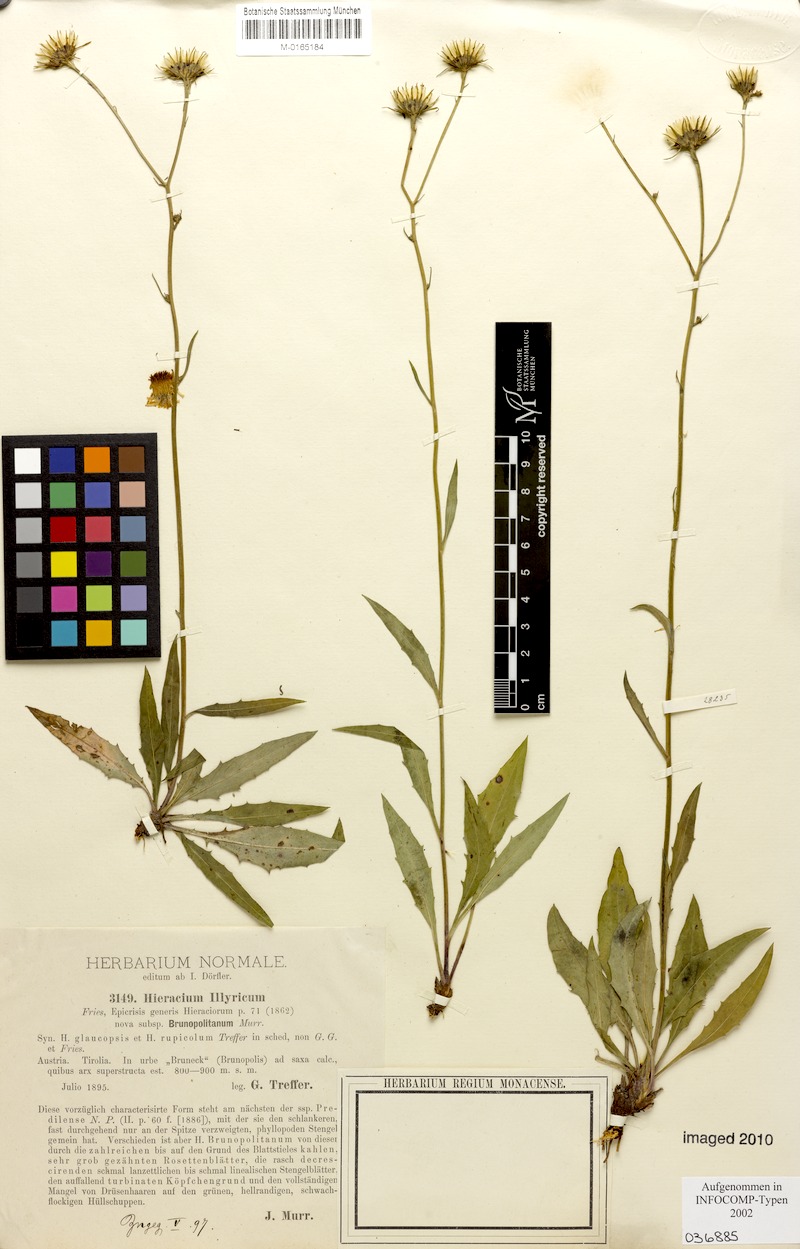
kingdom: Plantae
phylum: Tracheophyta
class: Magnoliopsida
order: Asterales
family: Asteraceae
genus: Hieracium
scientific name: Hieracium calcareum
